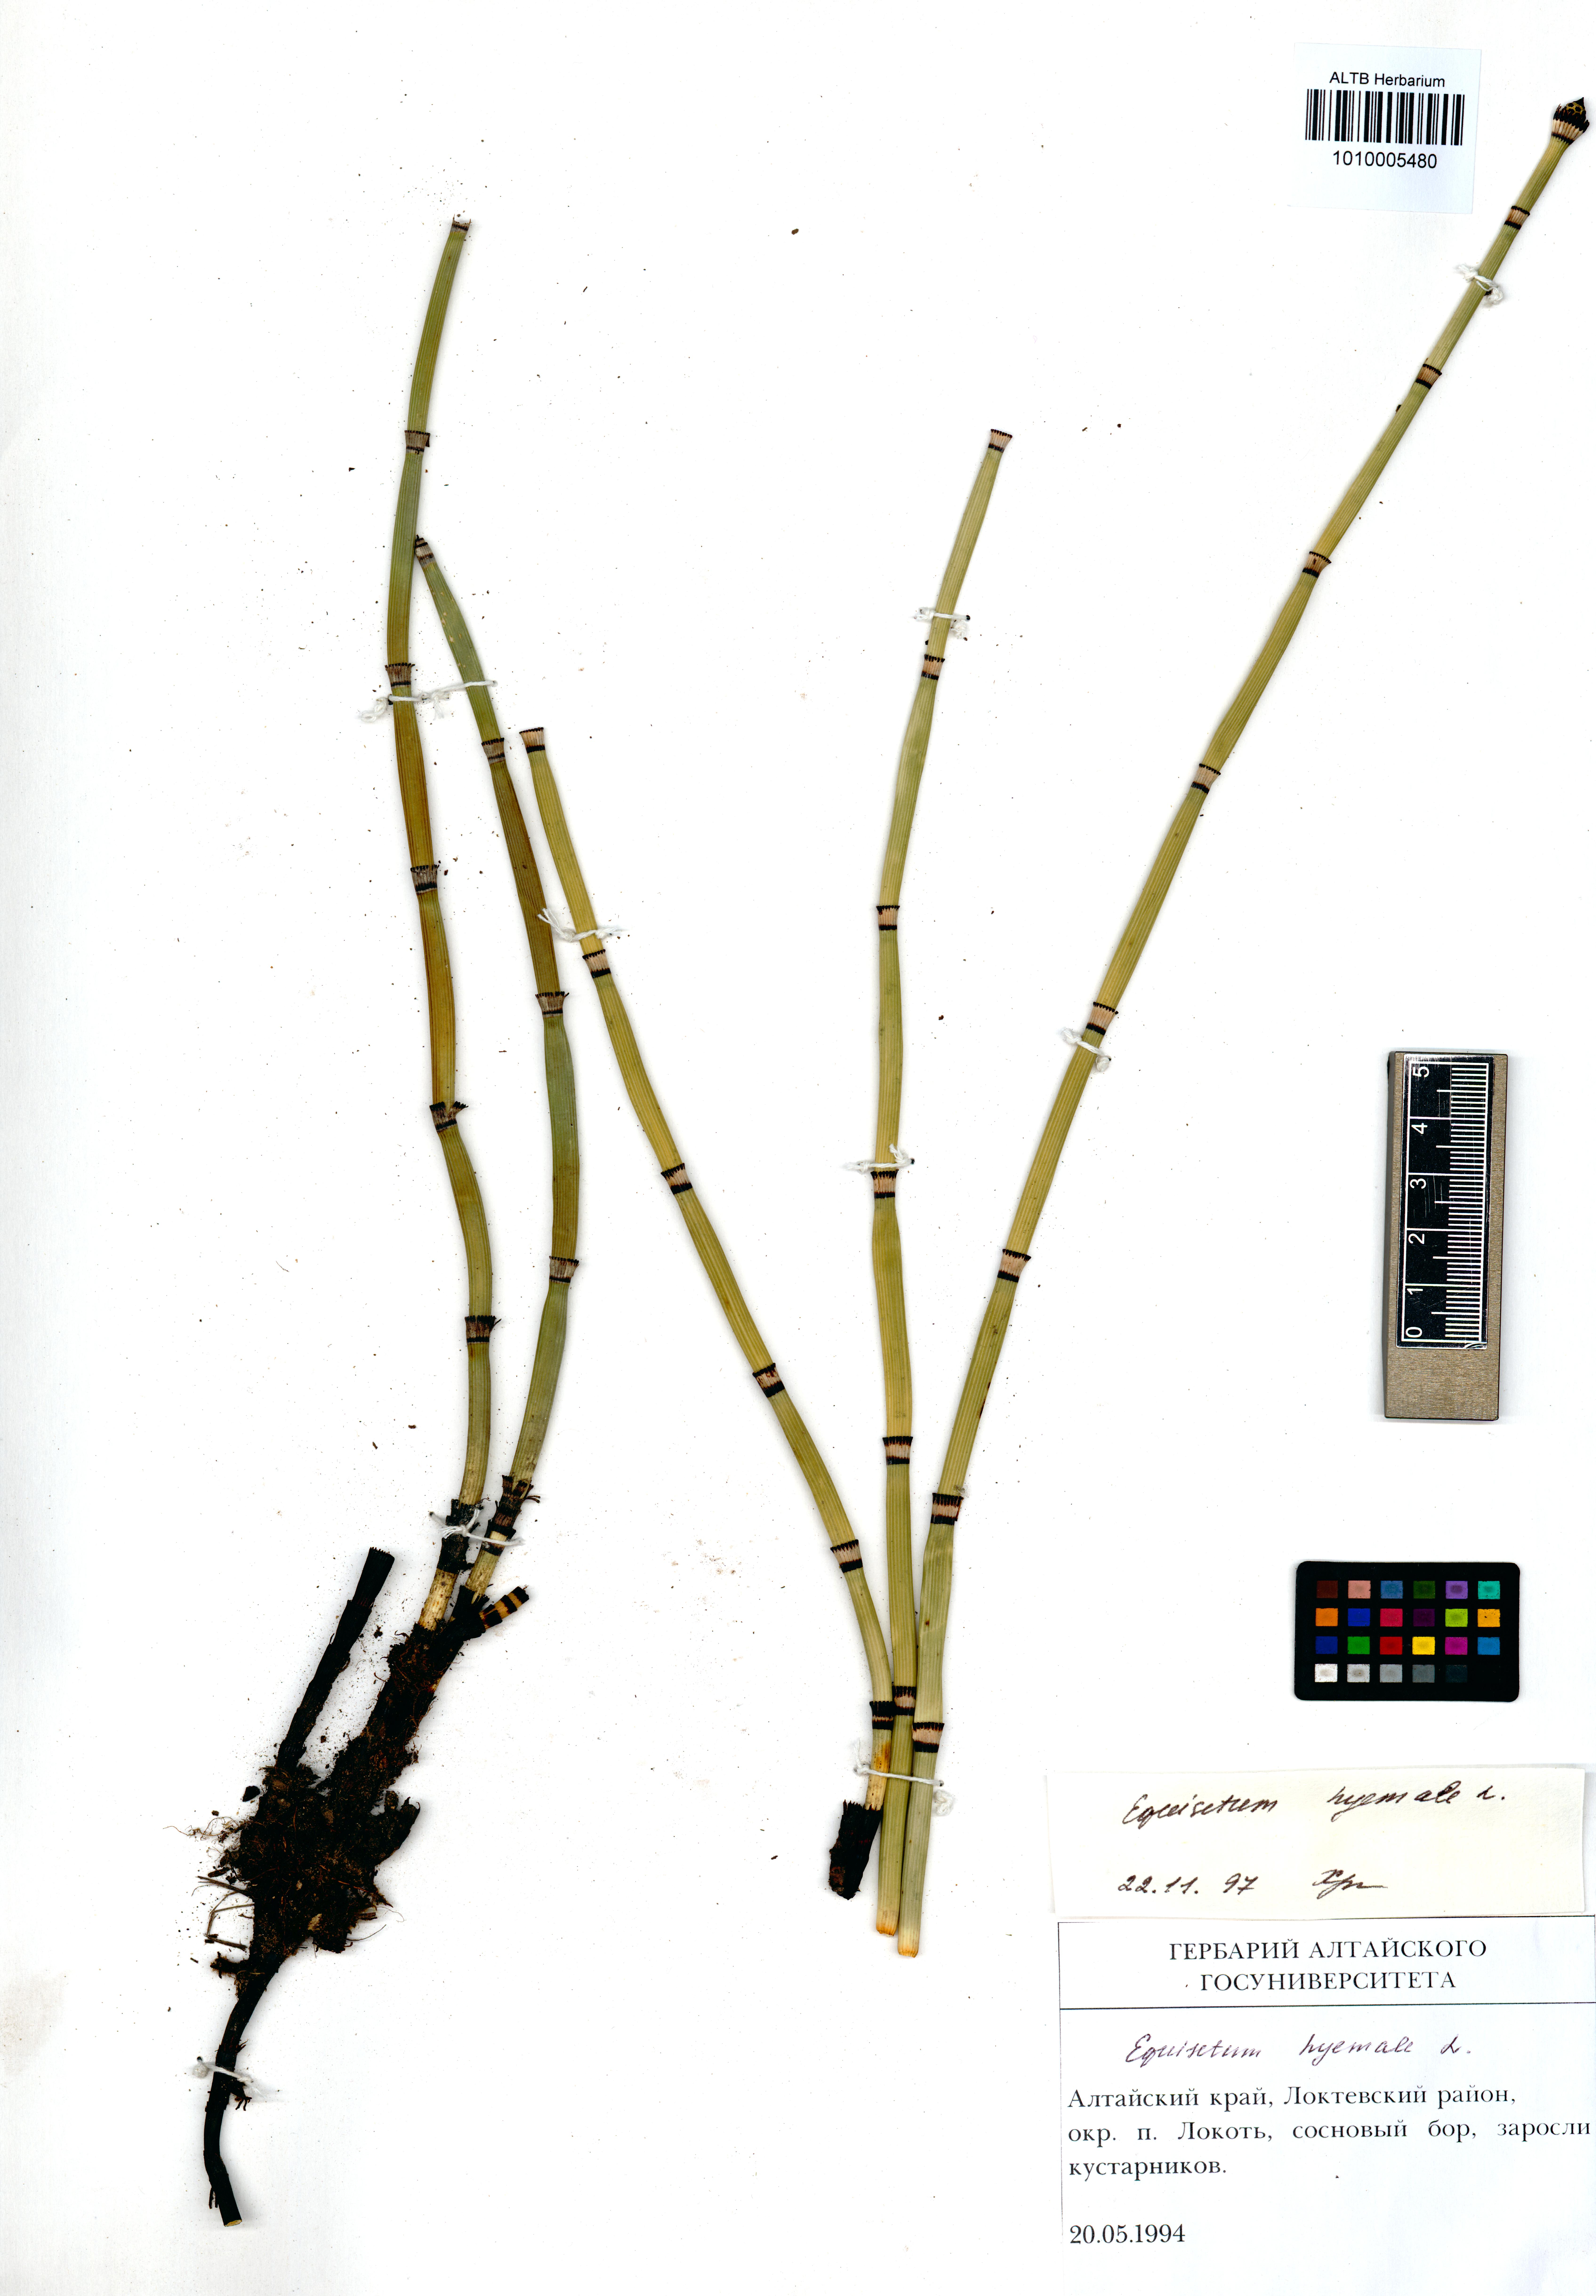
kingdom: Plantae
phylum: Tracheophyta
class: Polypodiopsida
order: Equisetales
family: Equisetaceae
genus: Equisetum
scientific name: Equisetum hyemale
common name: Rough horsetail
